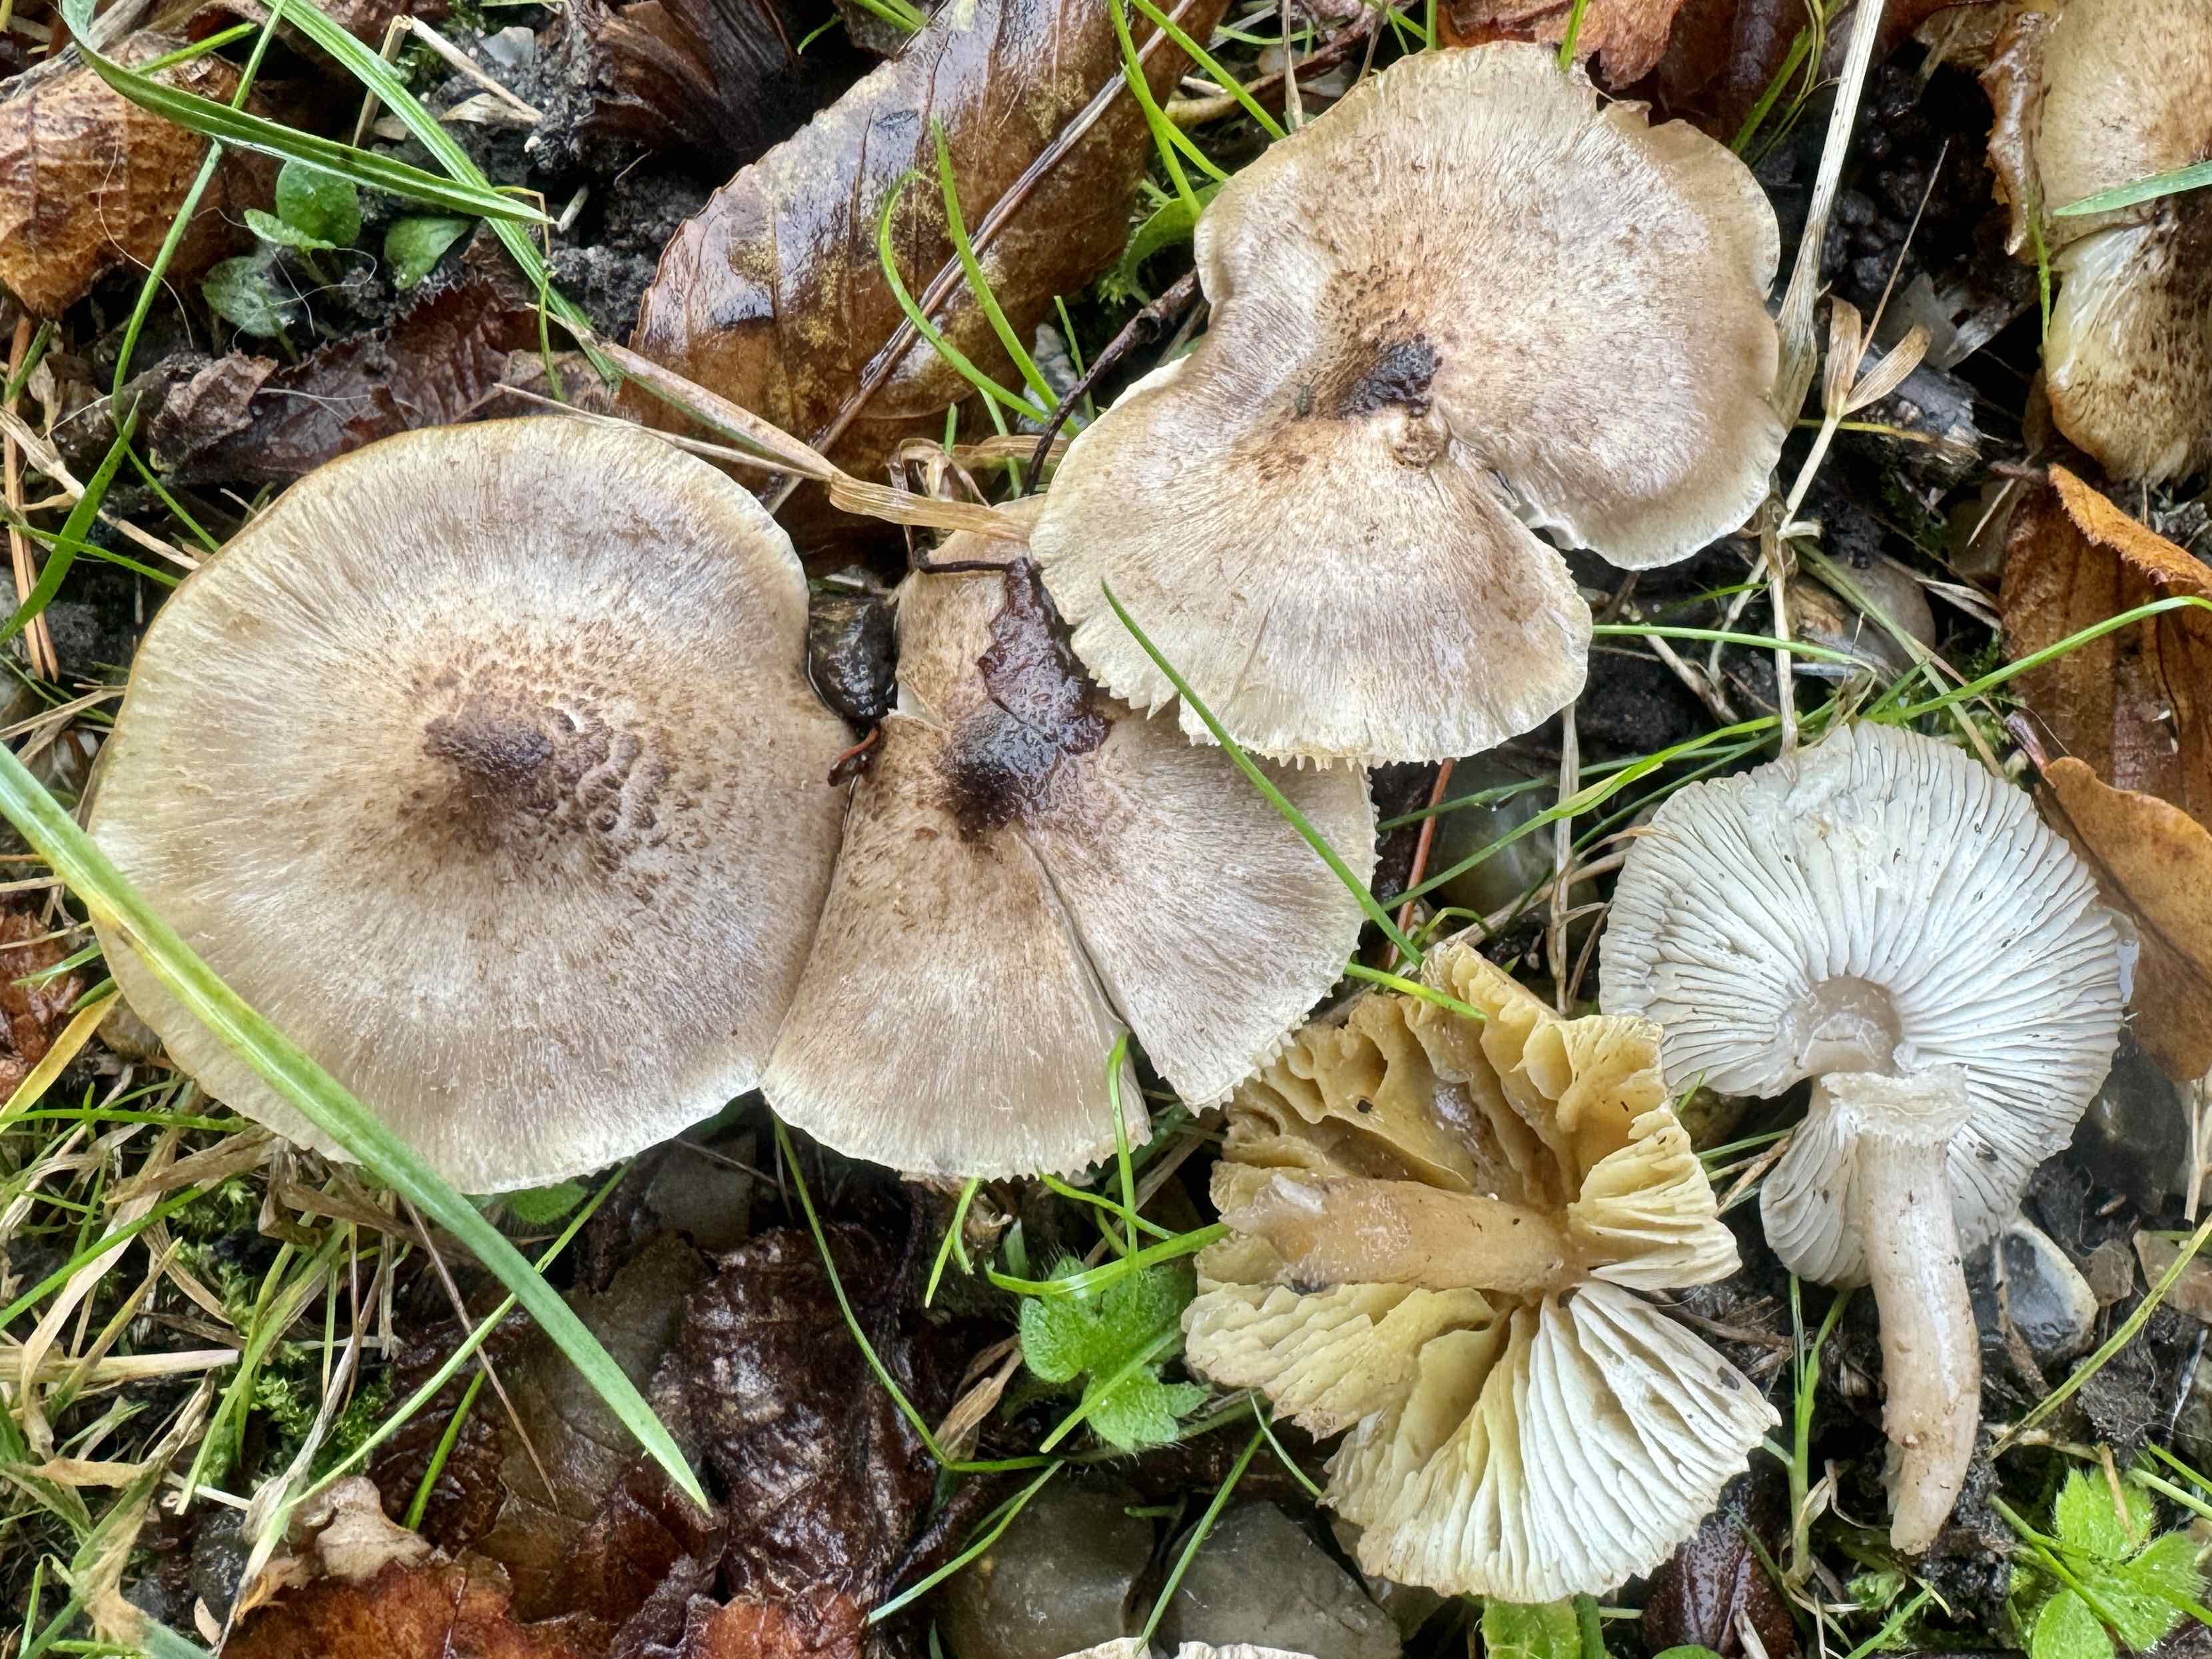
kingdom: Fungi
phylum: Basidiomycota
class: Agaricomycetes
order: Agaricales
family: Tricholomataceae
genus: Tricholoma
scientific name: Tricholoma scalpturatum
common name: gulplettet ridderhat
